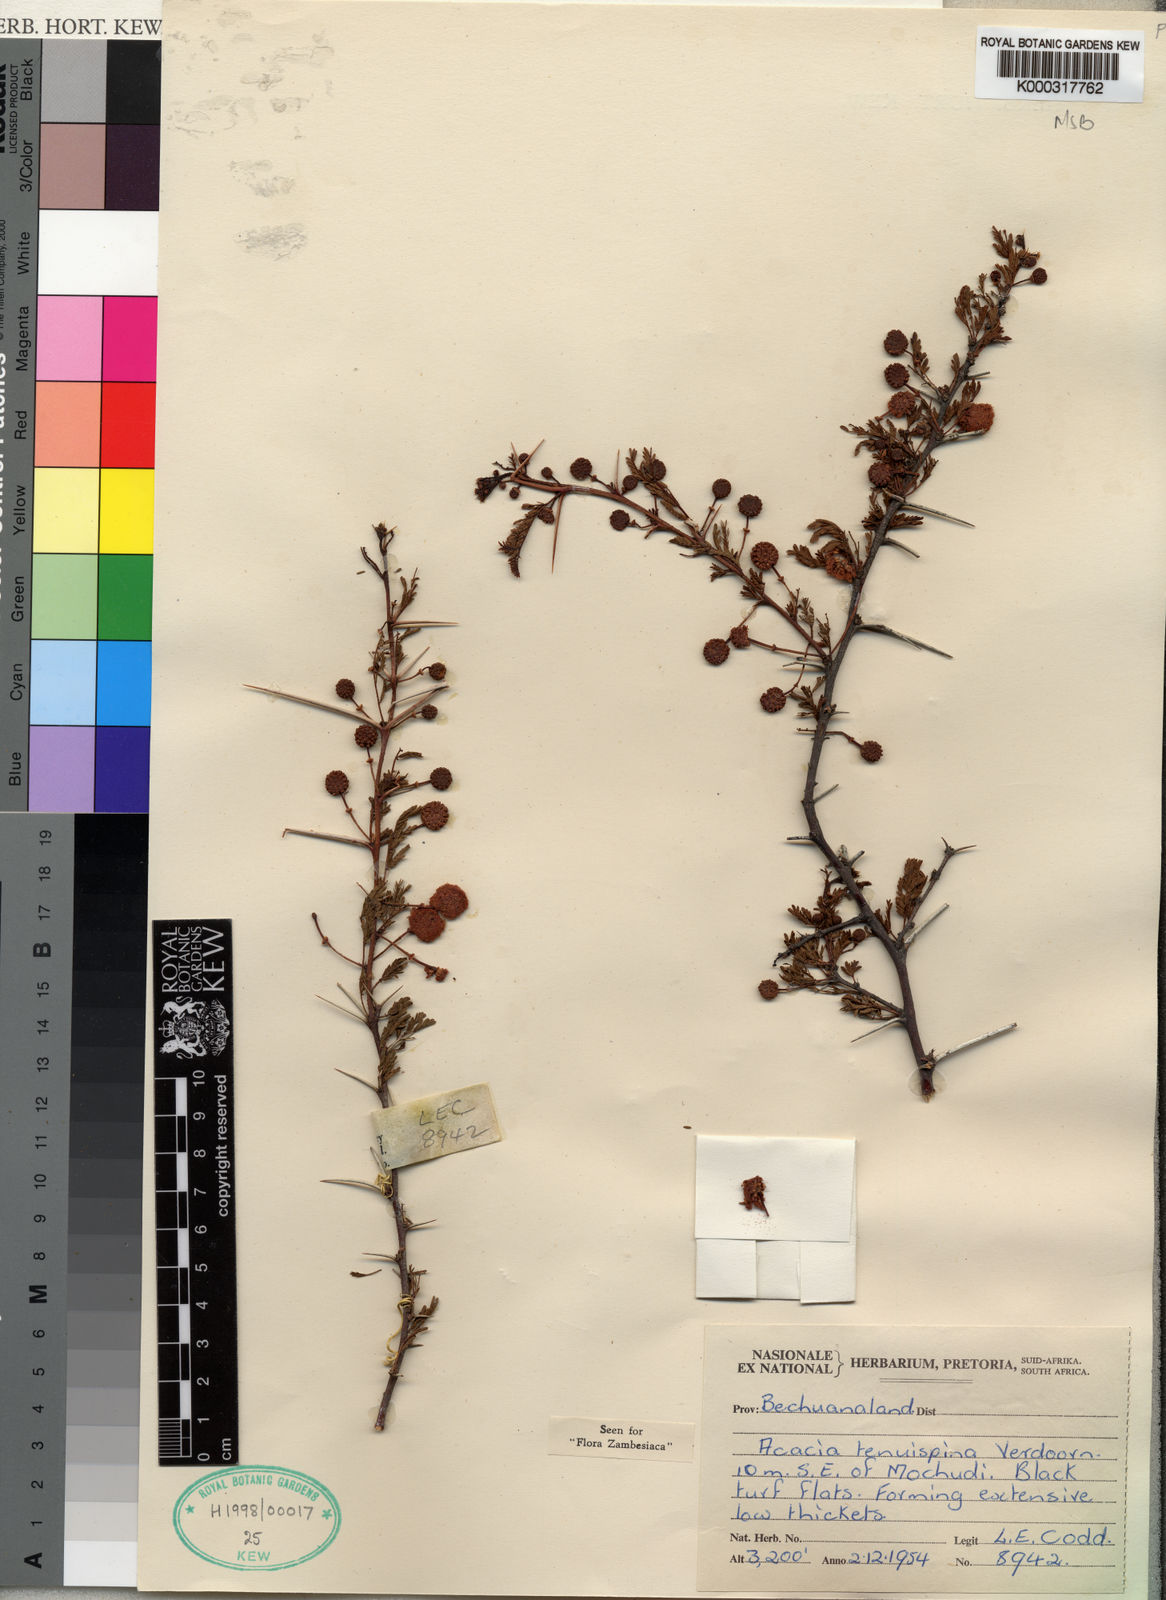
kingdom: Plantae
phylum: Tracheophyta
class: Magnoliopsida
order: Fabales
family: Fabaceae
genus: Vachellia
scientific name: Vachellia tenuispina
